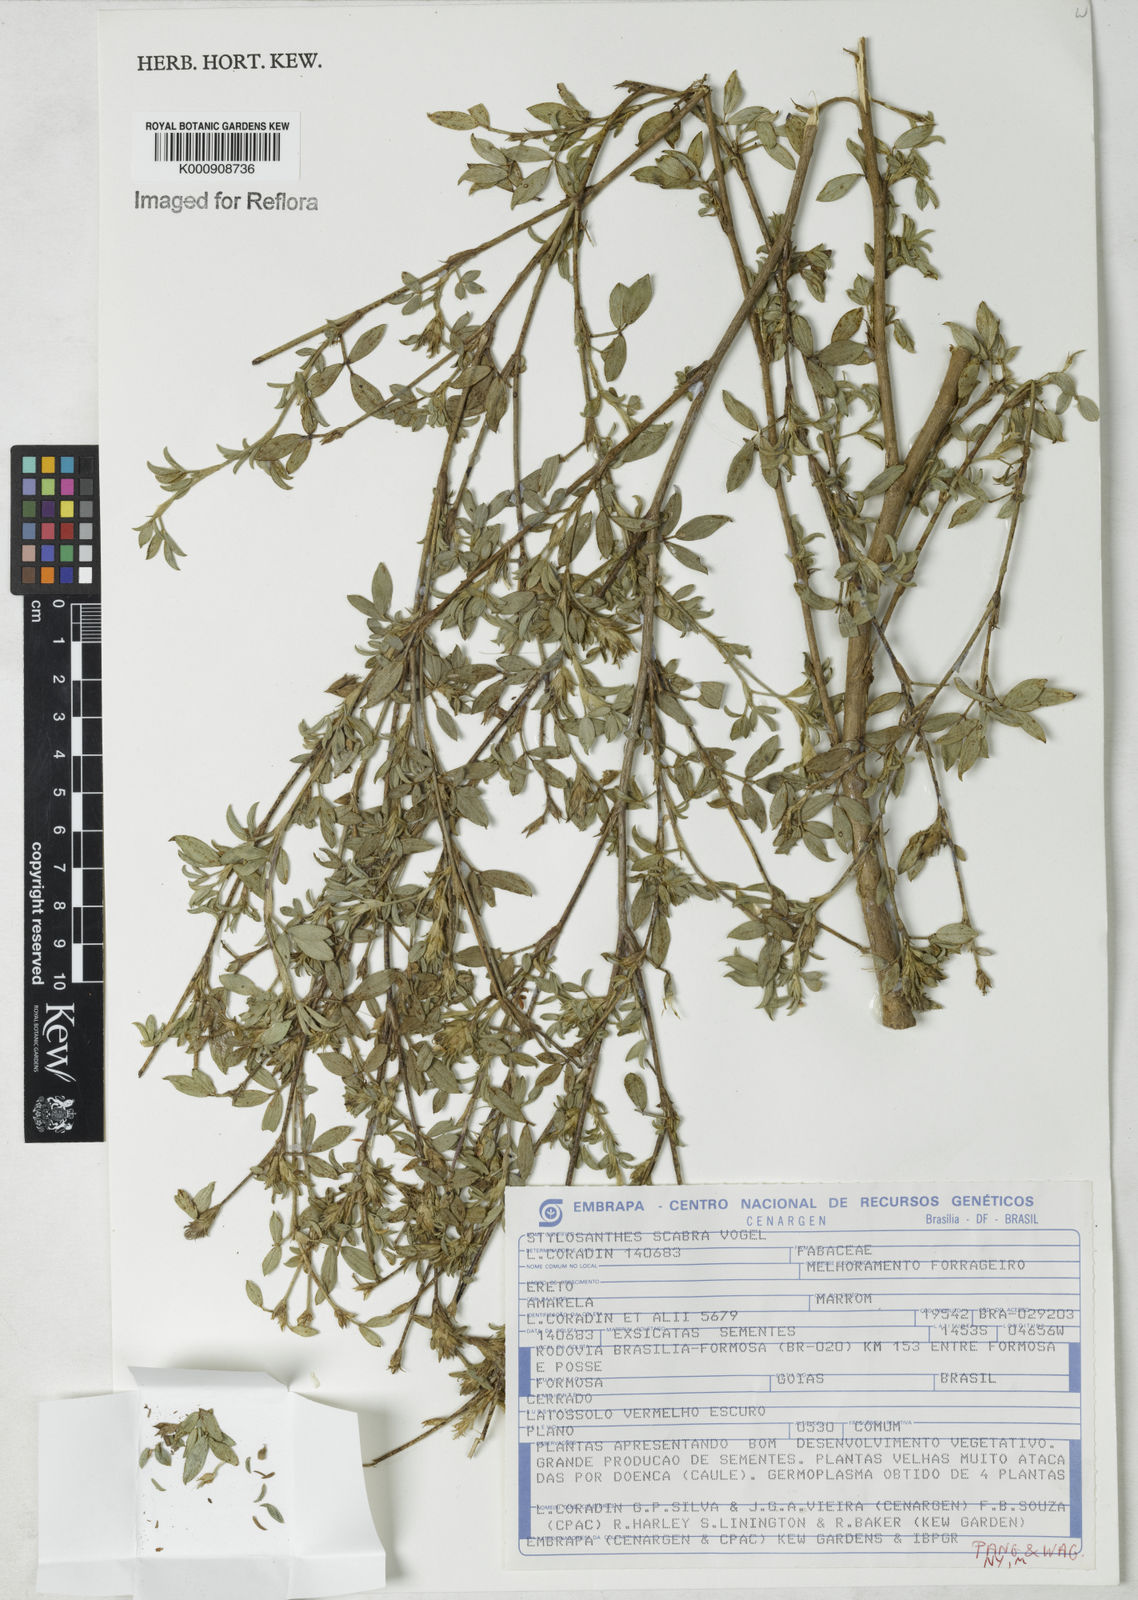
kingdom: Plantae
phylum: Tracheophyta
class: Magnoliopsida
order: Fabales
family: Fabaceae
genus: Stylosanthes
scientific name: Stylosanthes scabra
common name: Pencilflower
